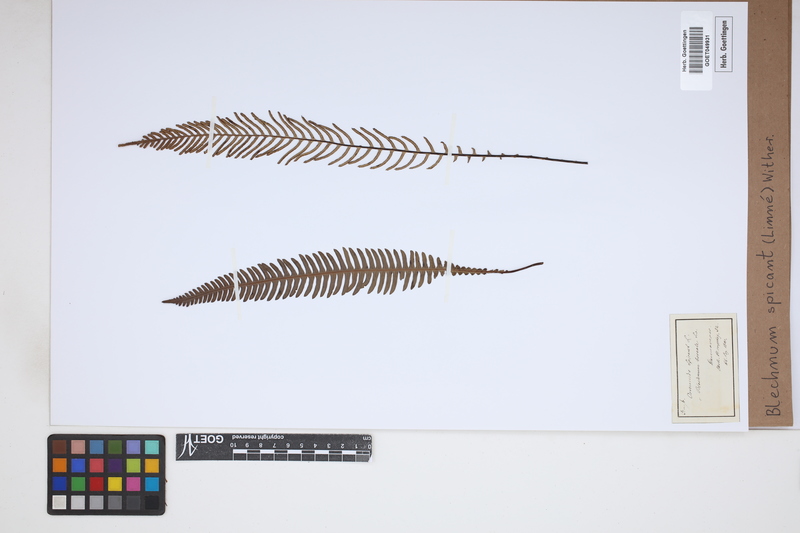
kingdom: Plantae
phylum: Tracheophyta
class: Polypodiopsida
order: Polypodiales
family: Blechnaceae
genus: Struthiopteris
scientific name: Struthiopteris spicant
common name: Deer fern
